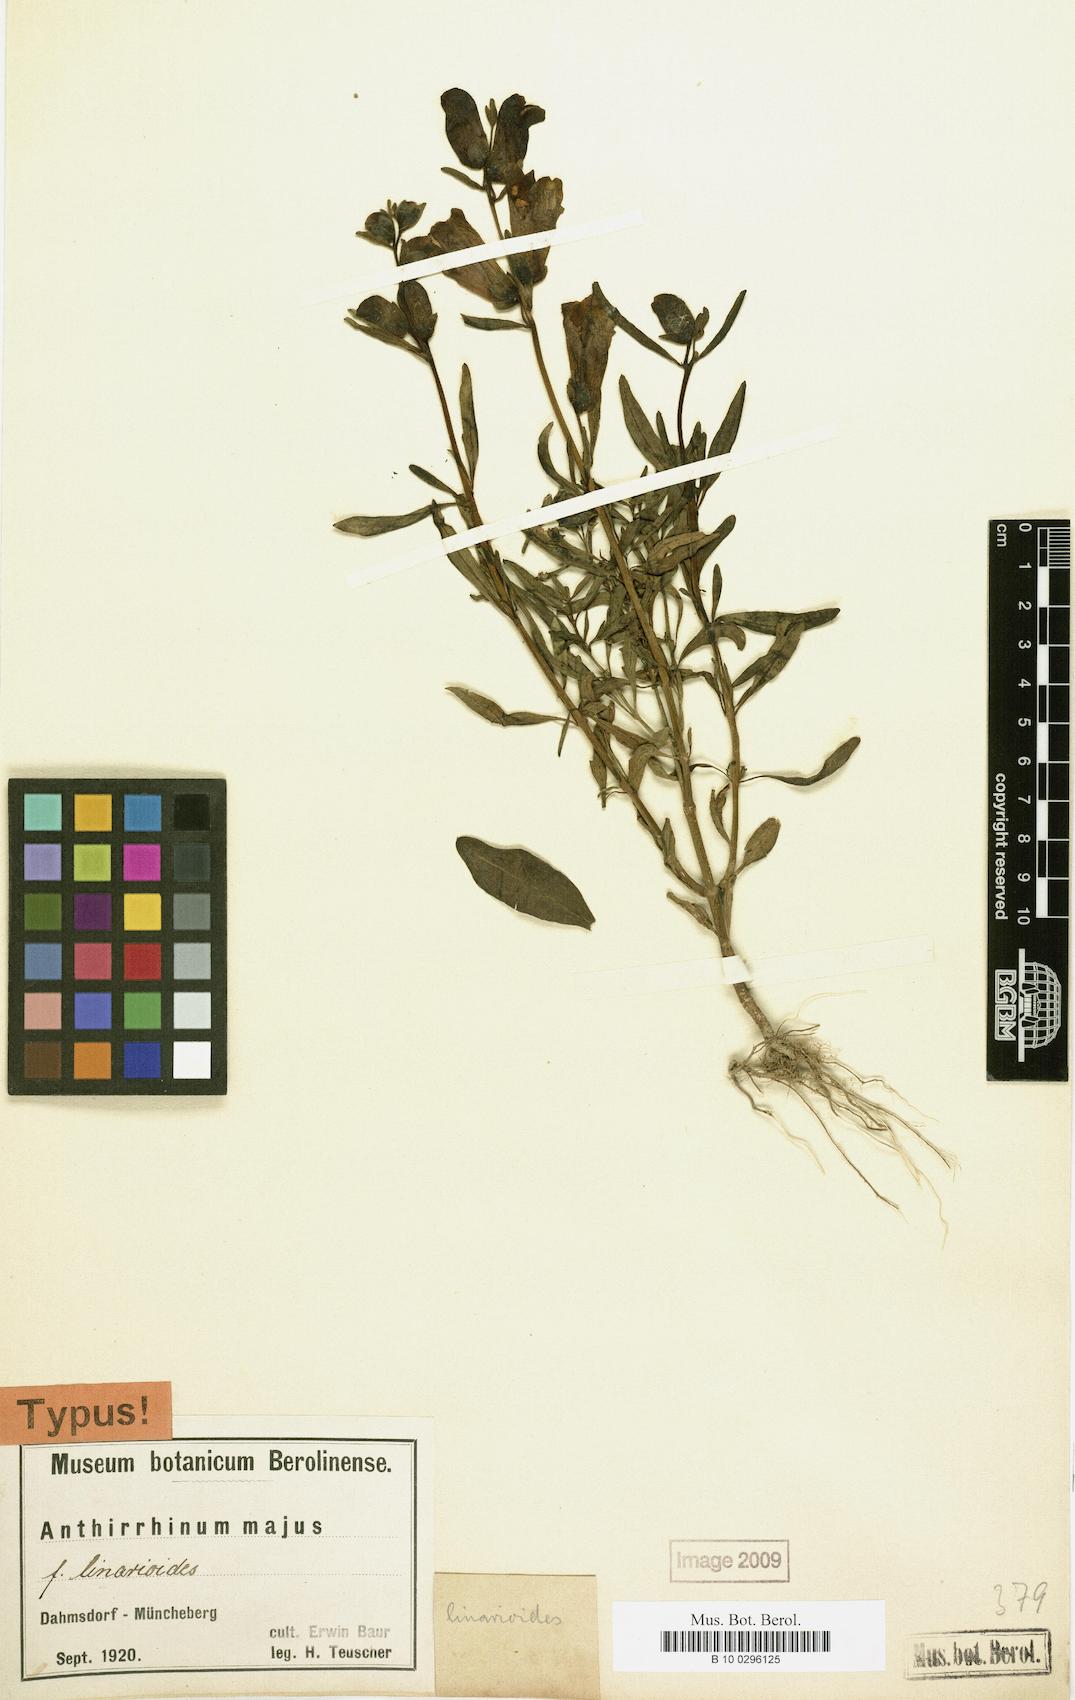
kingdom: Plantae
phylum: Tracheophyta
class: Magnoliopsida
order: Lamiales
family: Plantaginaceae
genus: Antirrhinum
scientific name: Antirrhinum majus
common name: Snapdragon
